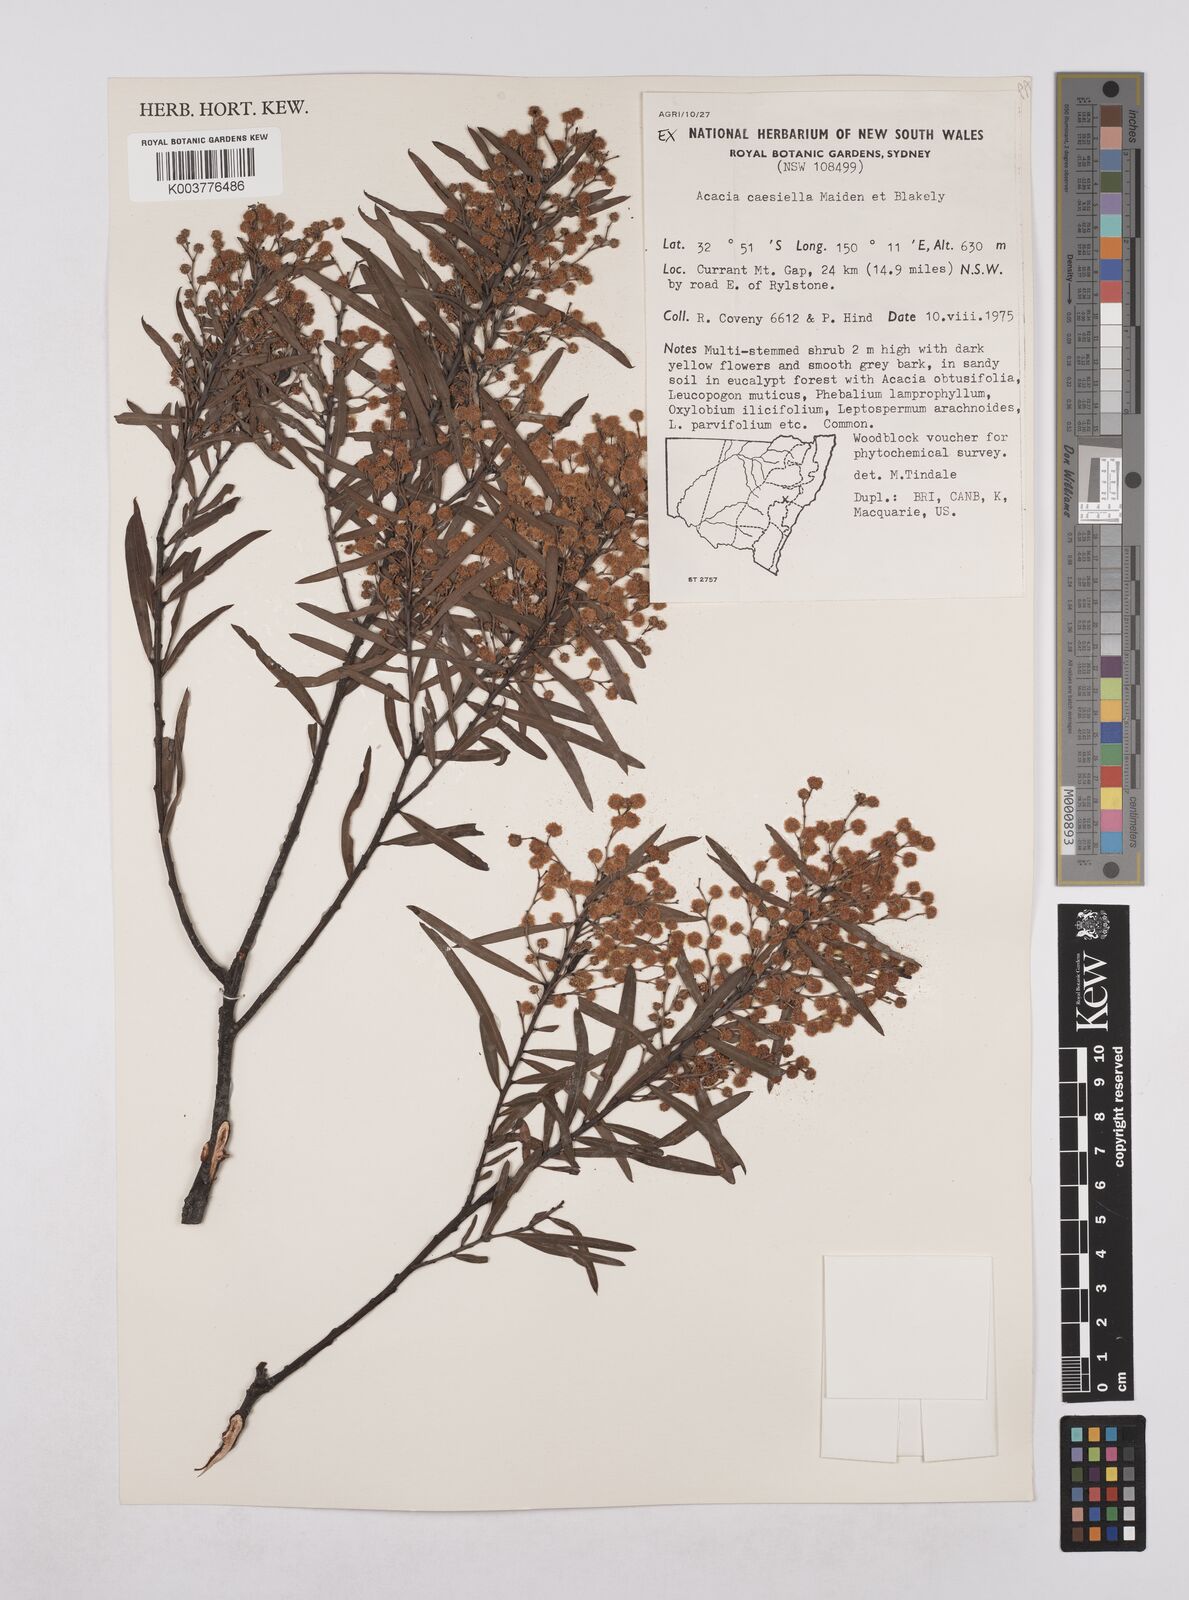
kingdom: Plantae
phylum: Tracheophyta
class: Magnoliopsida
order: Fabales
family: Fabaceae
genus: Acacia
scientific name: Acacia caesiella
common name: Tableland wattle
